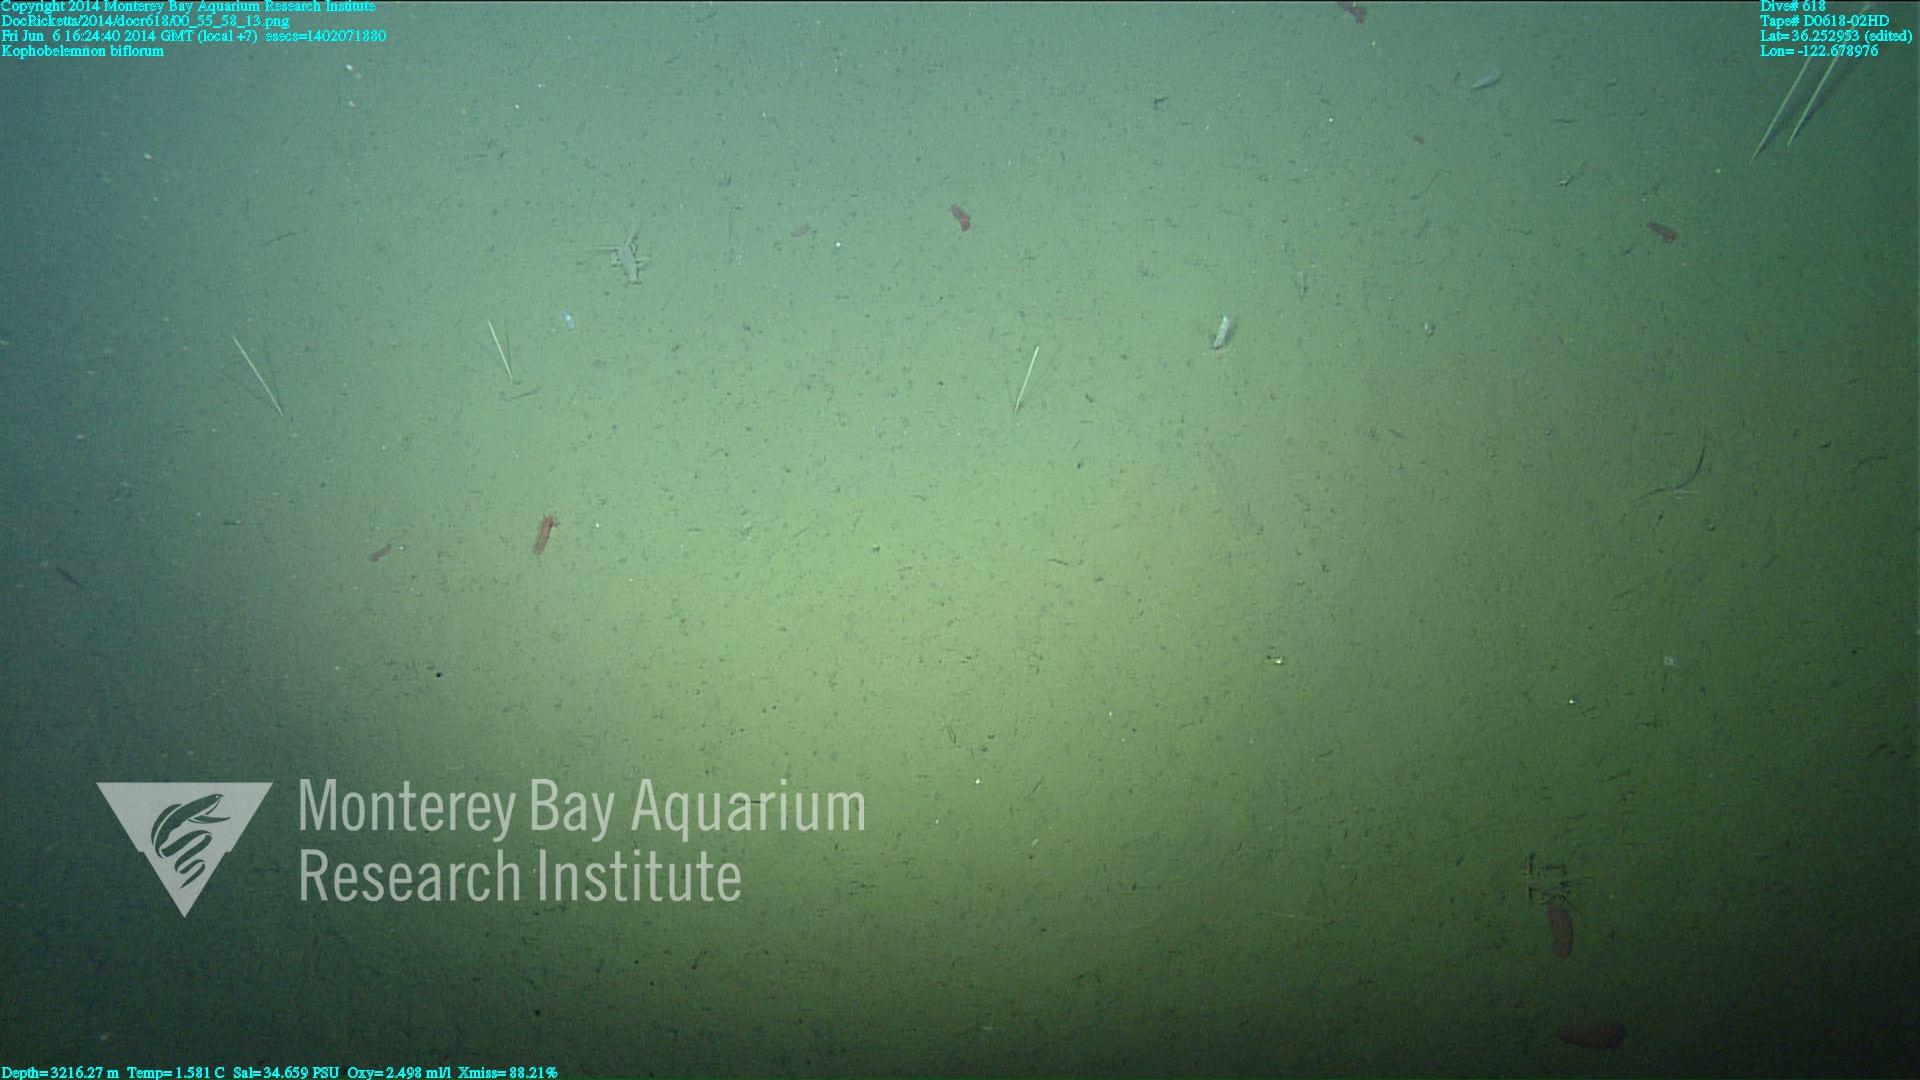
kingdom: Animalia
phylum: Cnidaria
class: Anthozoa
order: Scleralcyonacea
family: Kophobelemnidae
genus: Kophobelemnon
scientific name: Kophobelemnon macrospinosum
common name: Large-spined sea pen
